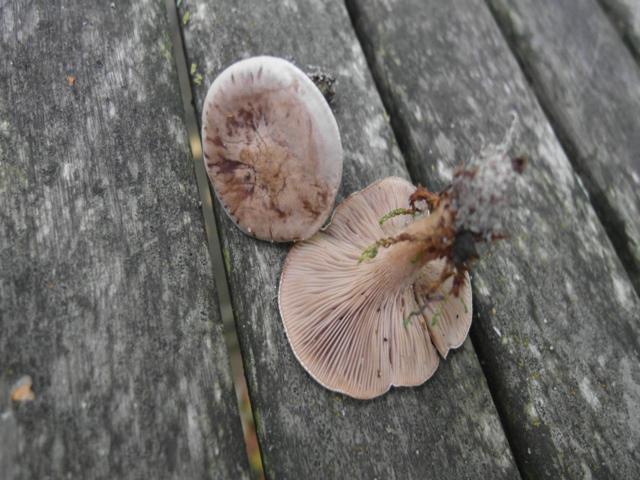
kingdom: Fungi
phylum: Basidiomycota
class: Agaricomycetes
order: Agaricales
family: Tricholomataceae
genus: Lulesia
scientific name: Lulesia
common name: sortnende troldhat
